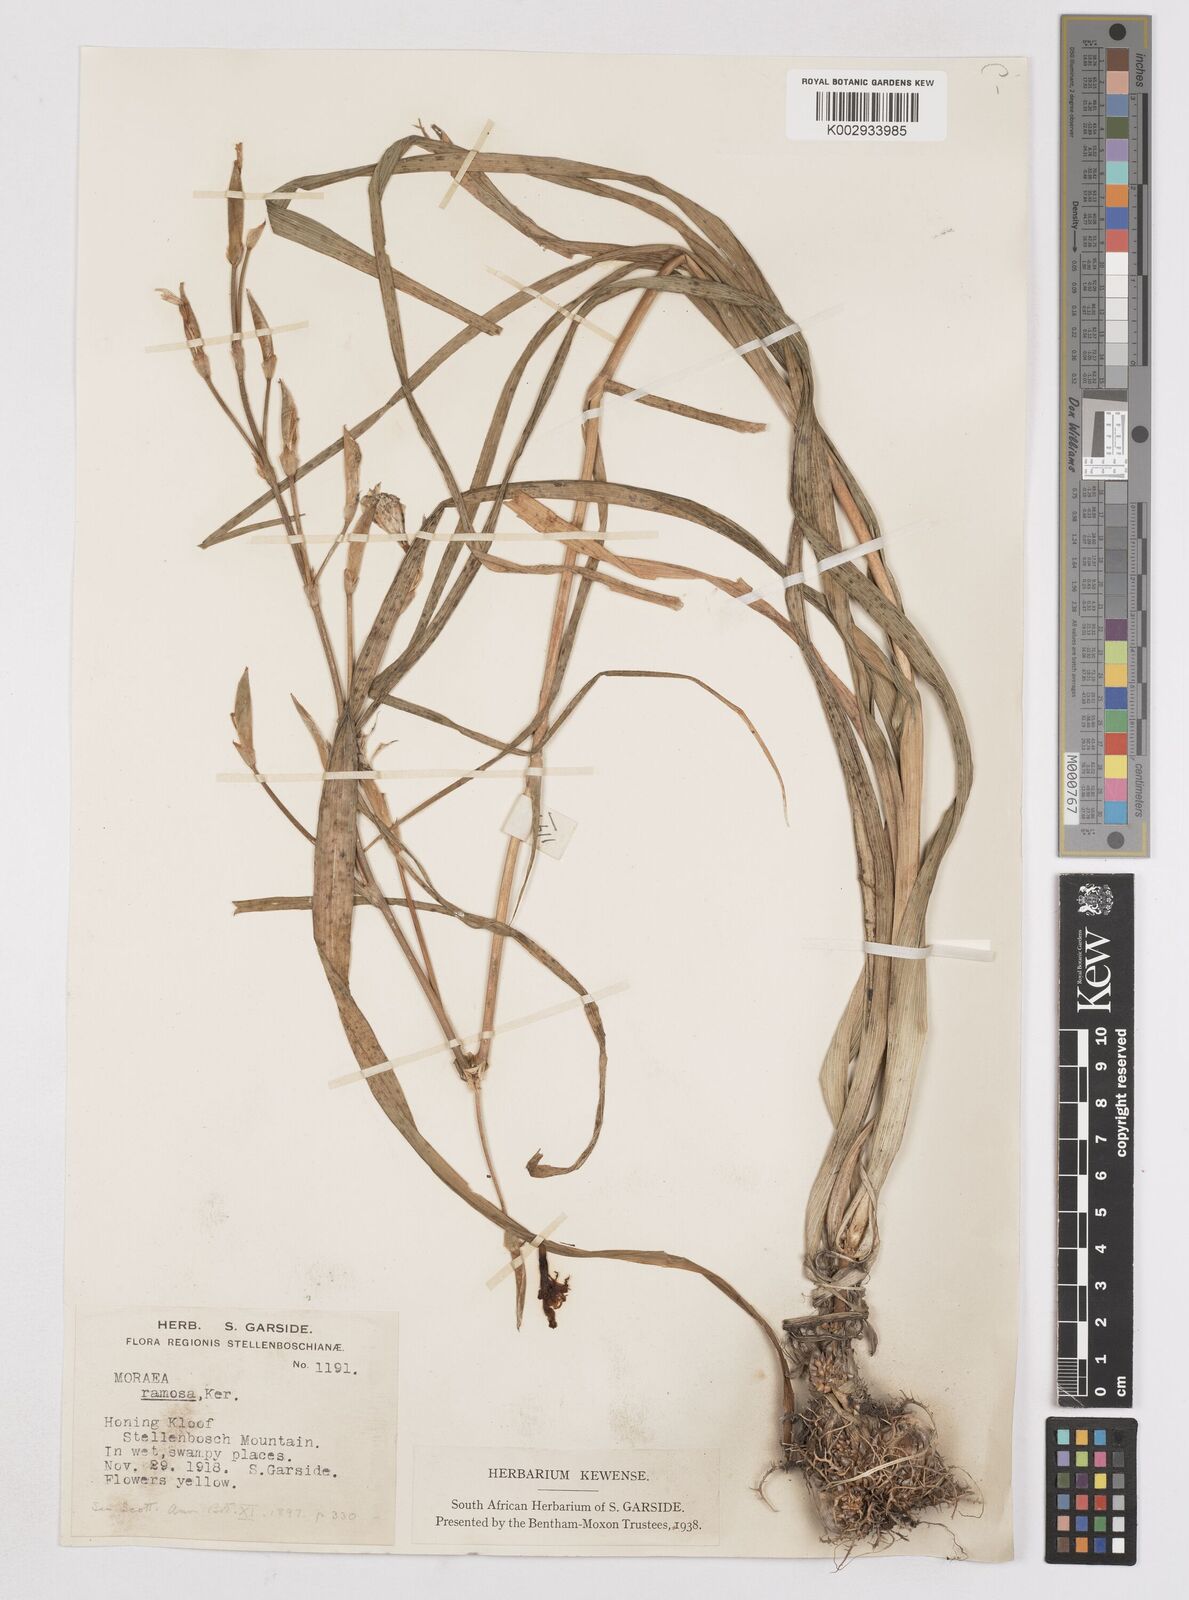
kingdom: Plantae
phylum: Tracheophyta
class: Liliopsida
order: Asparagales
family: Iridaceae
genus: Moraea
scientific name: Moraea ramosissima
